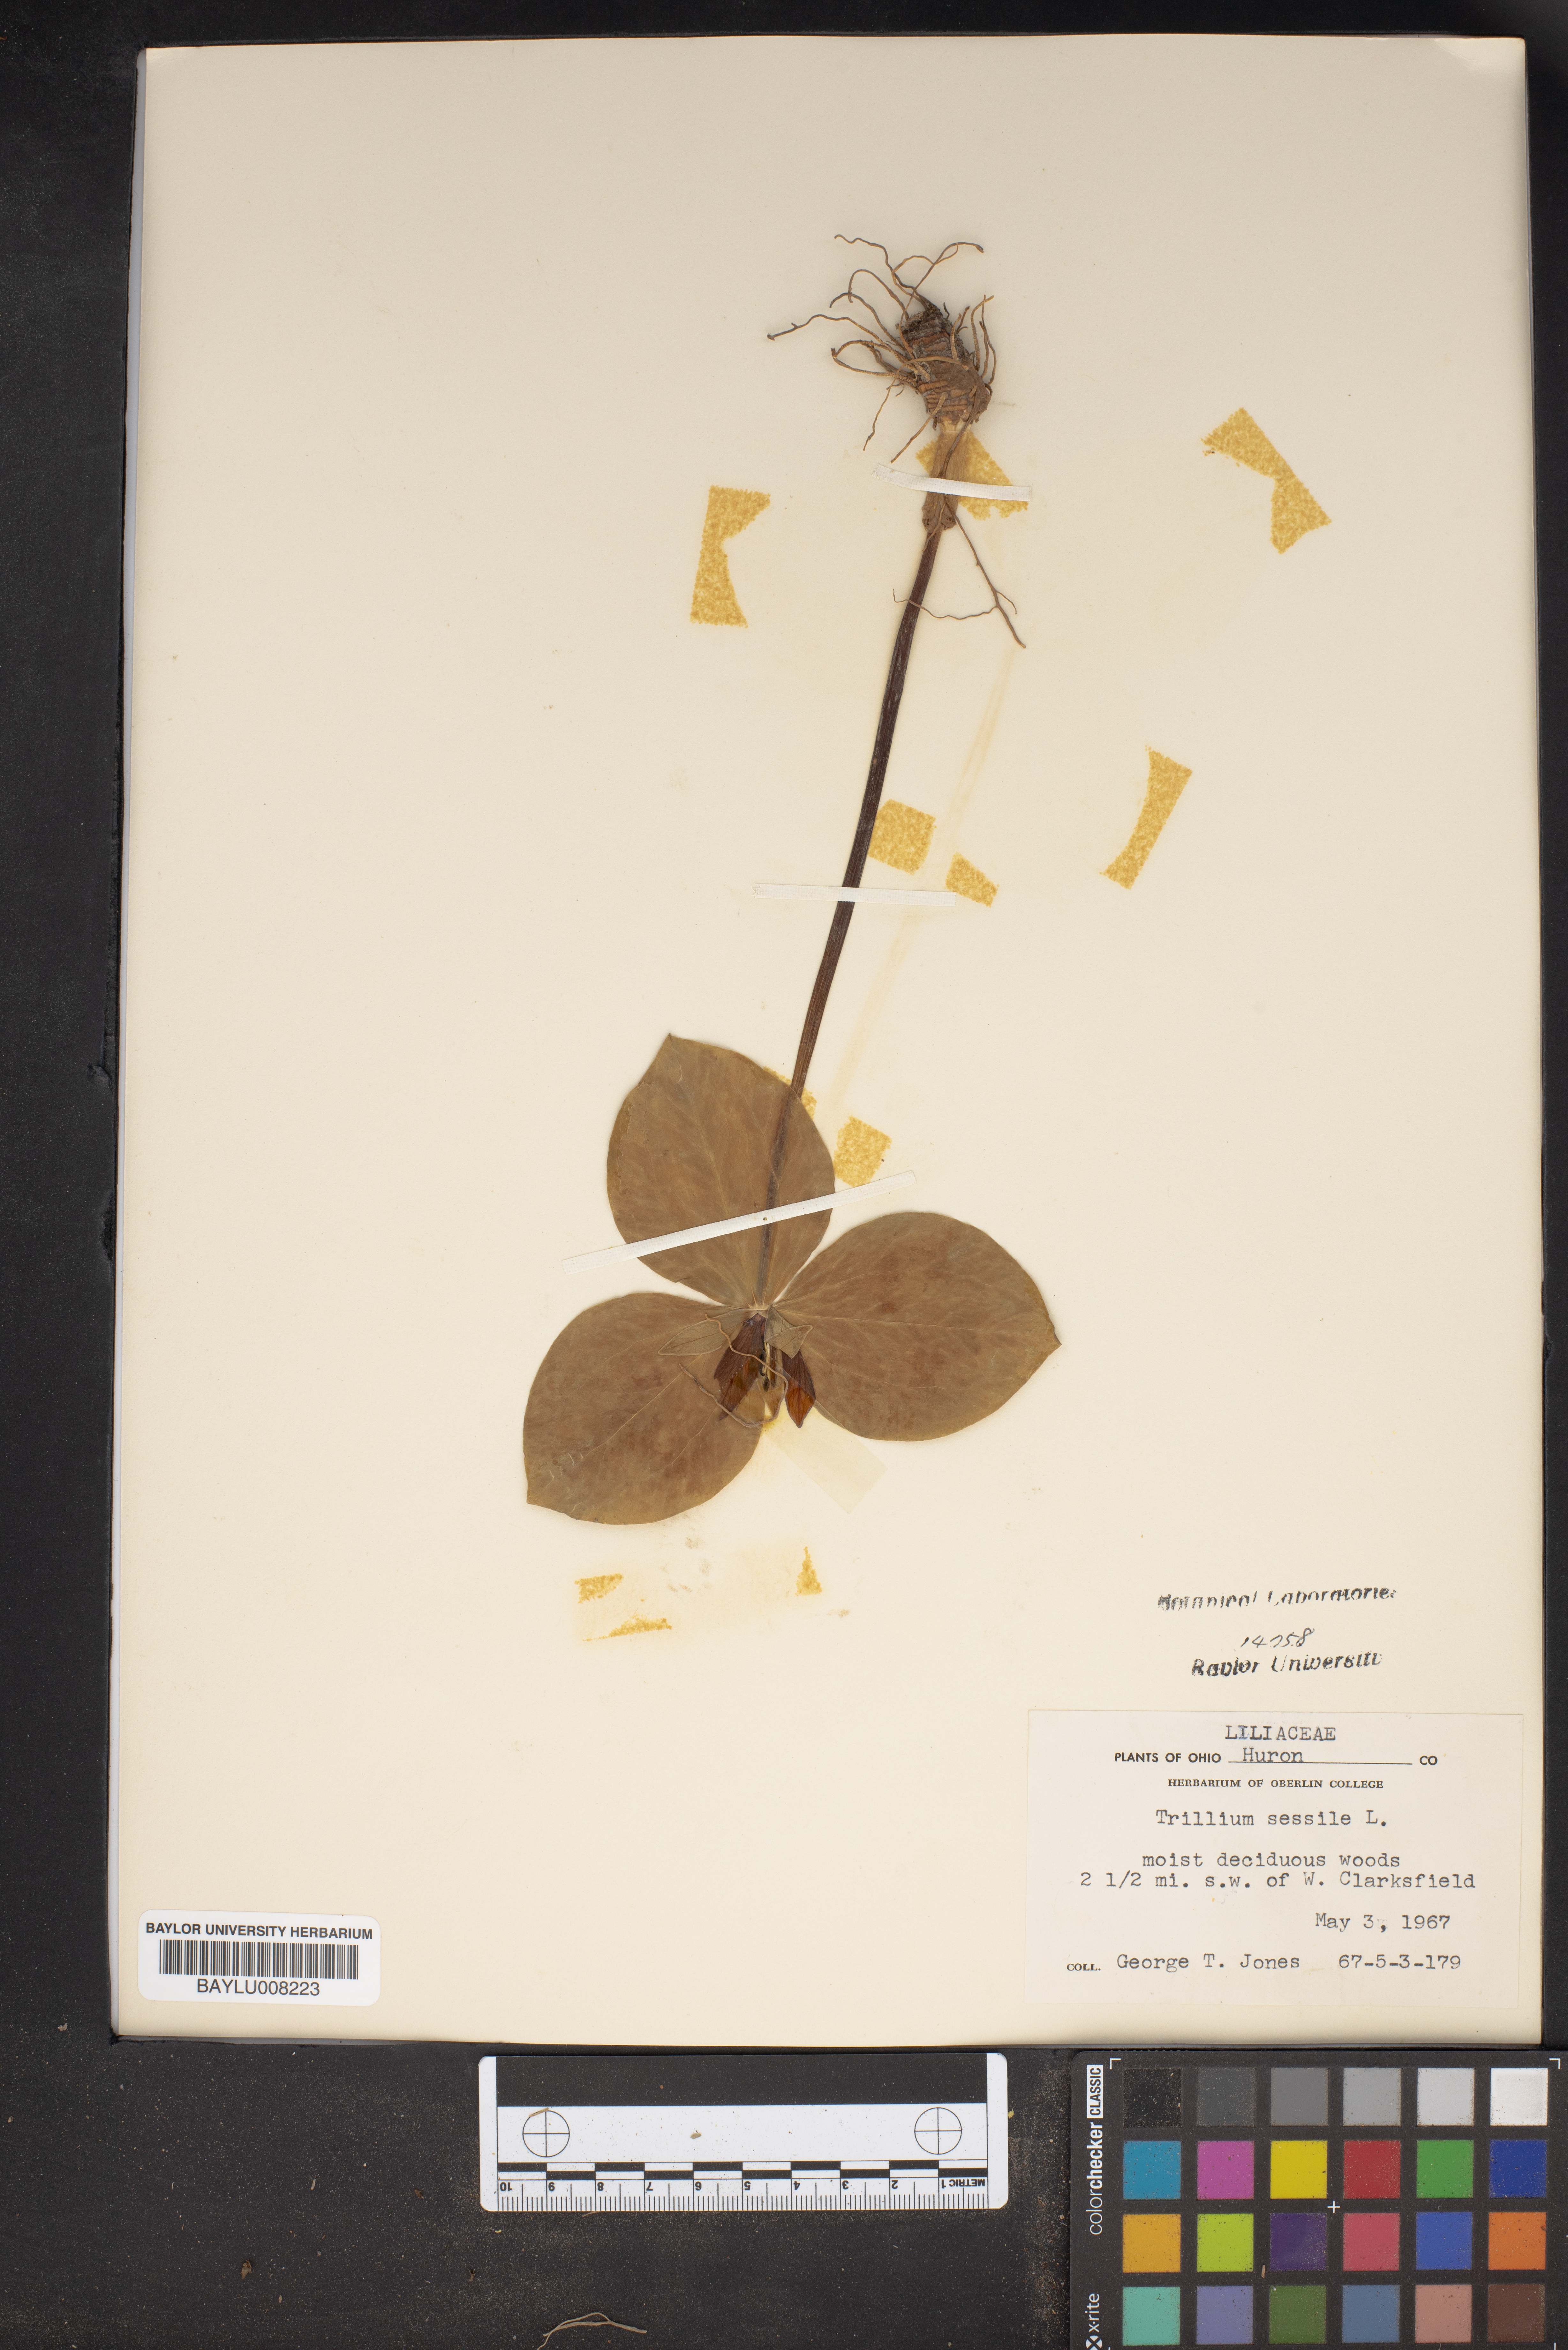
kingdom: Plantae
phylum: Tracheophyta
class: Liliopsida
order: Liliales
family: Melanthiaceae
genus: Trillium
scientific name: Trillium sessile
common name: Sessile trillium
